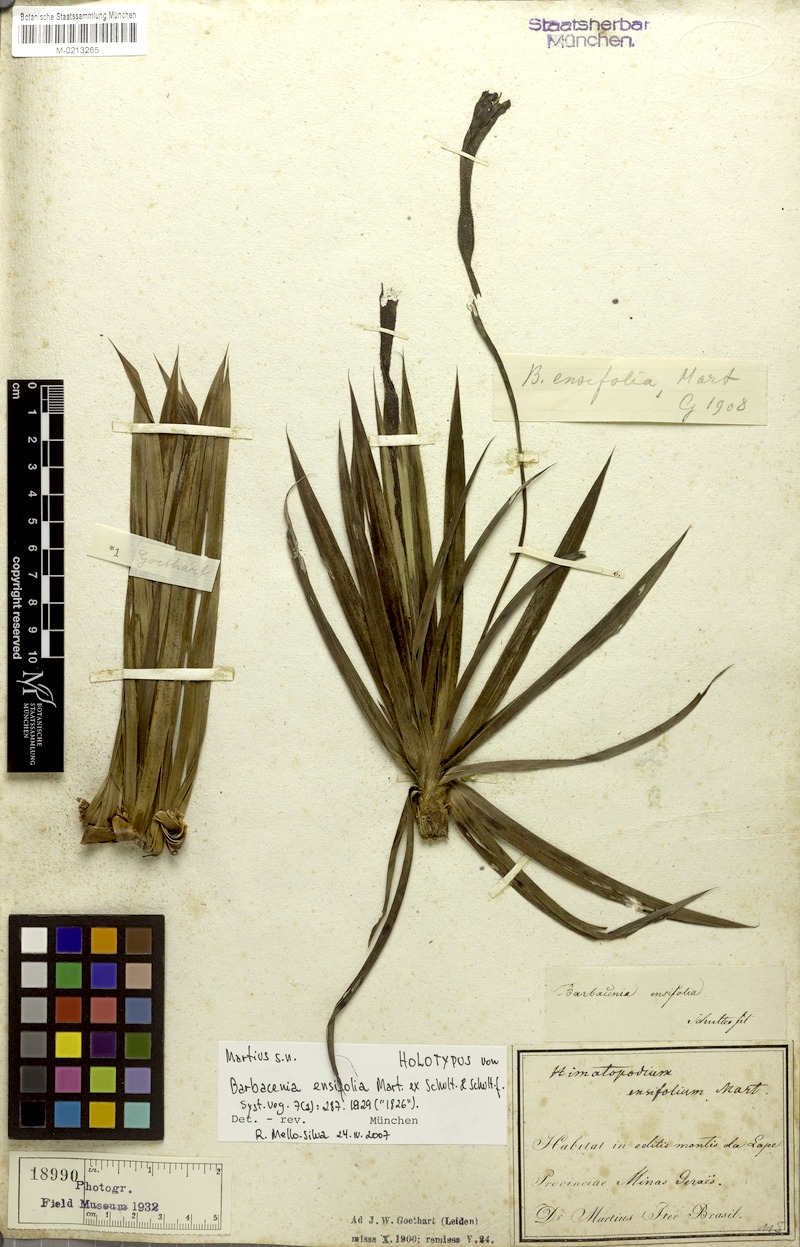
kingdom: Plantae
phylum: Tracheophyta
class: Liliopsida
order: Pandanales
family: Velloziaceae
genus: Barbacenia
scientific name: Barbacenia ensifolia
